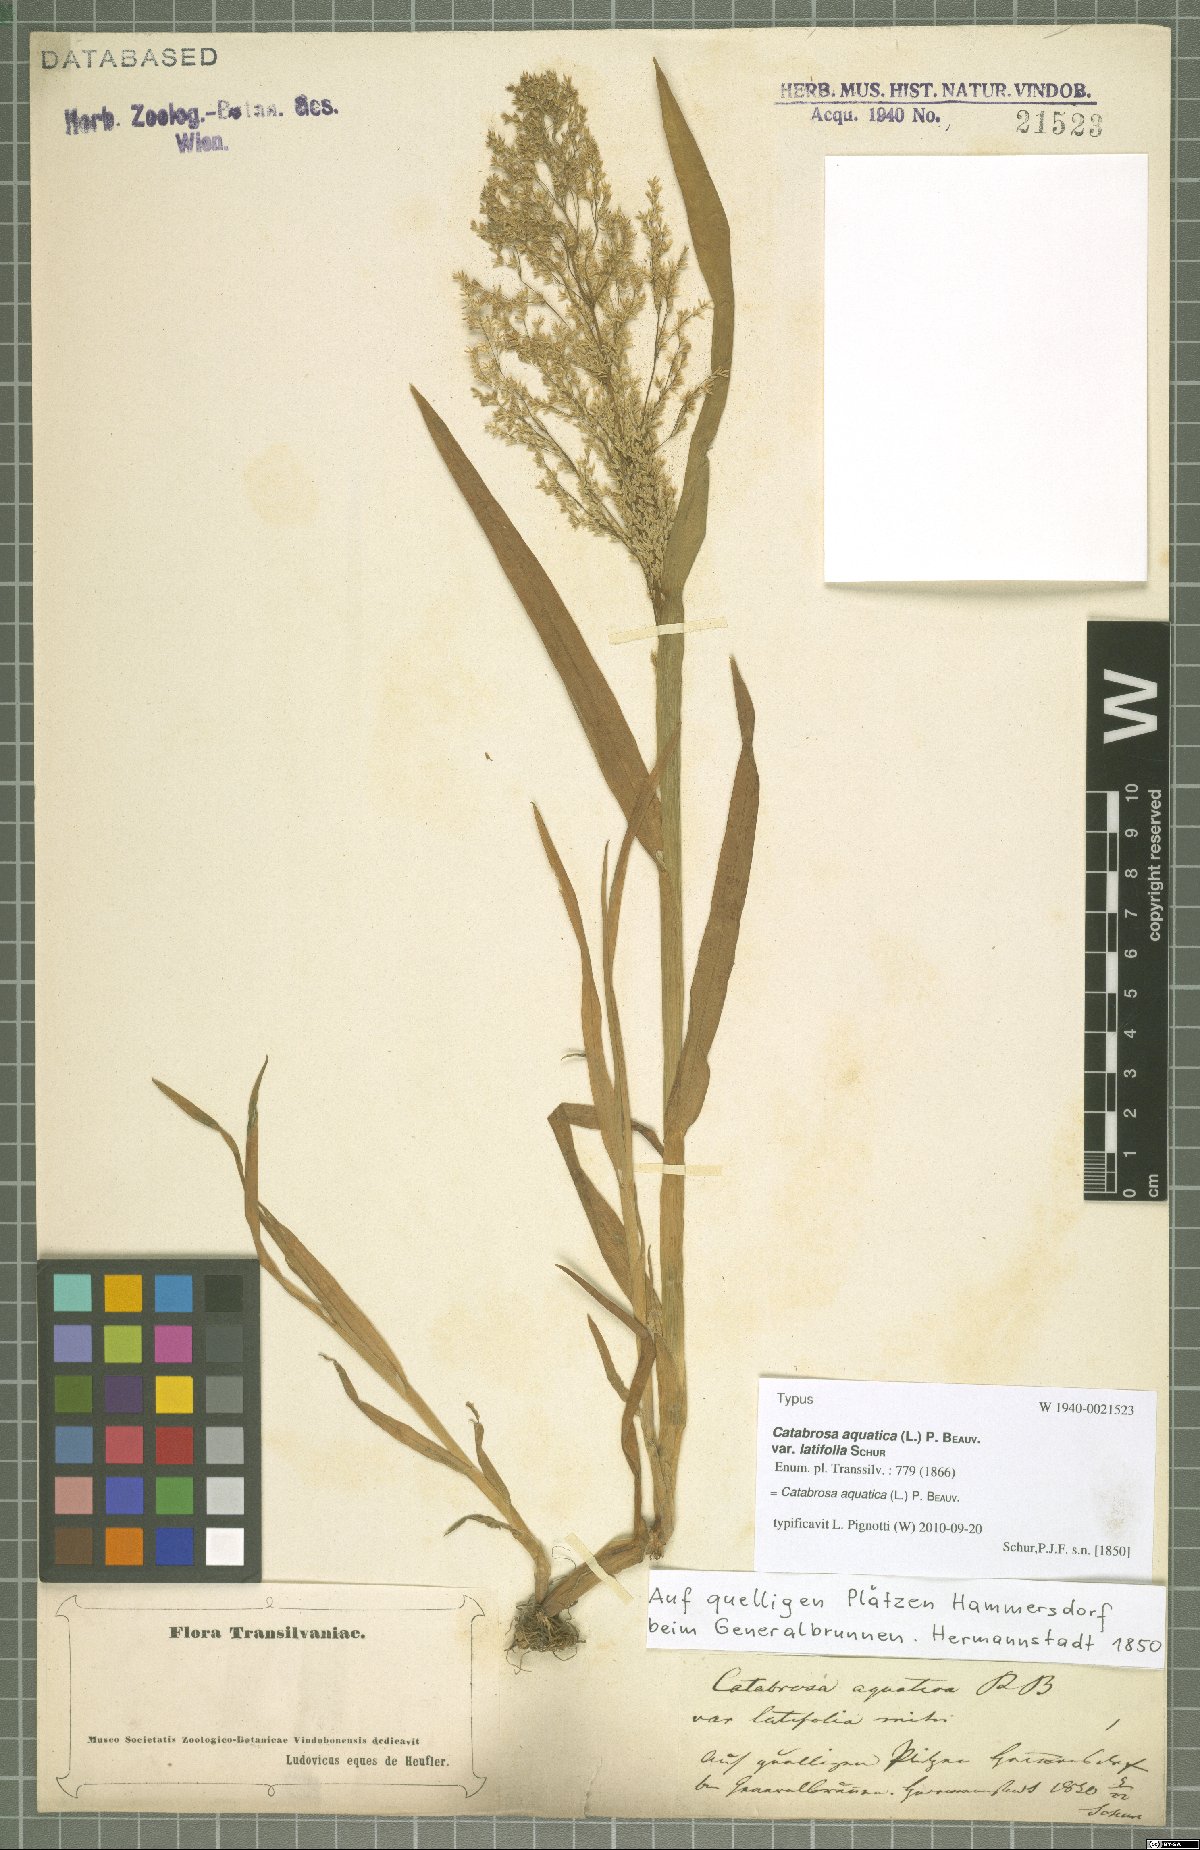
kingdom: Plantae
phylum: Tracheophyta
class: Liliopsida
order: Poales
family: Poaceae
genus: Catabrosa
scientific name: Catabrosa aquatica
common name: Whorl-grass
